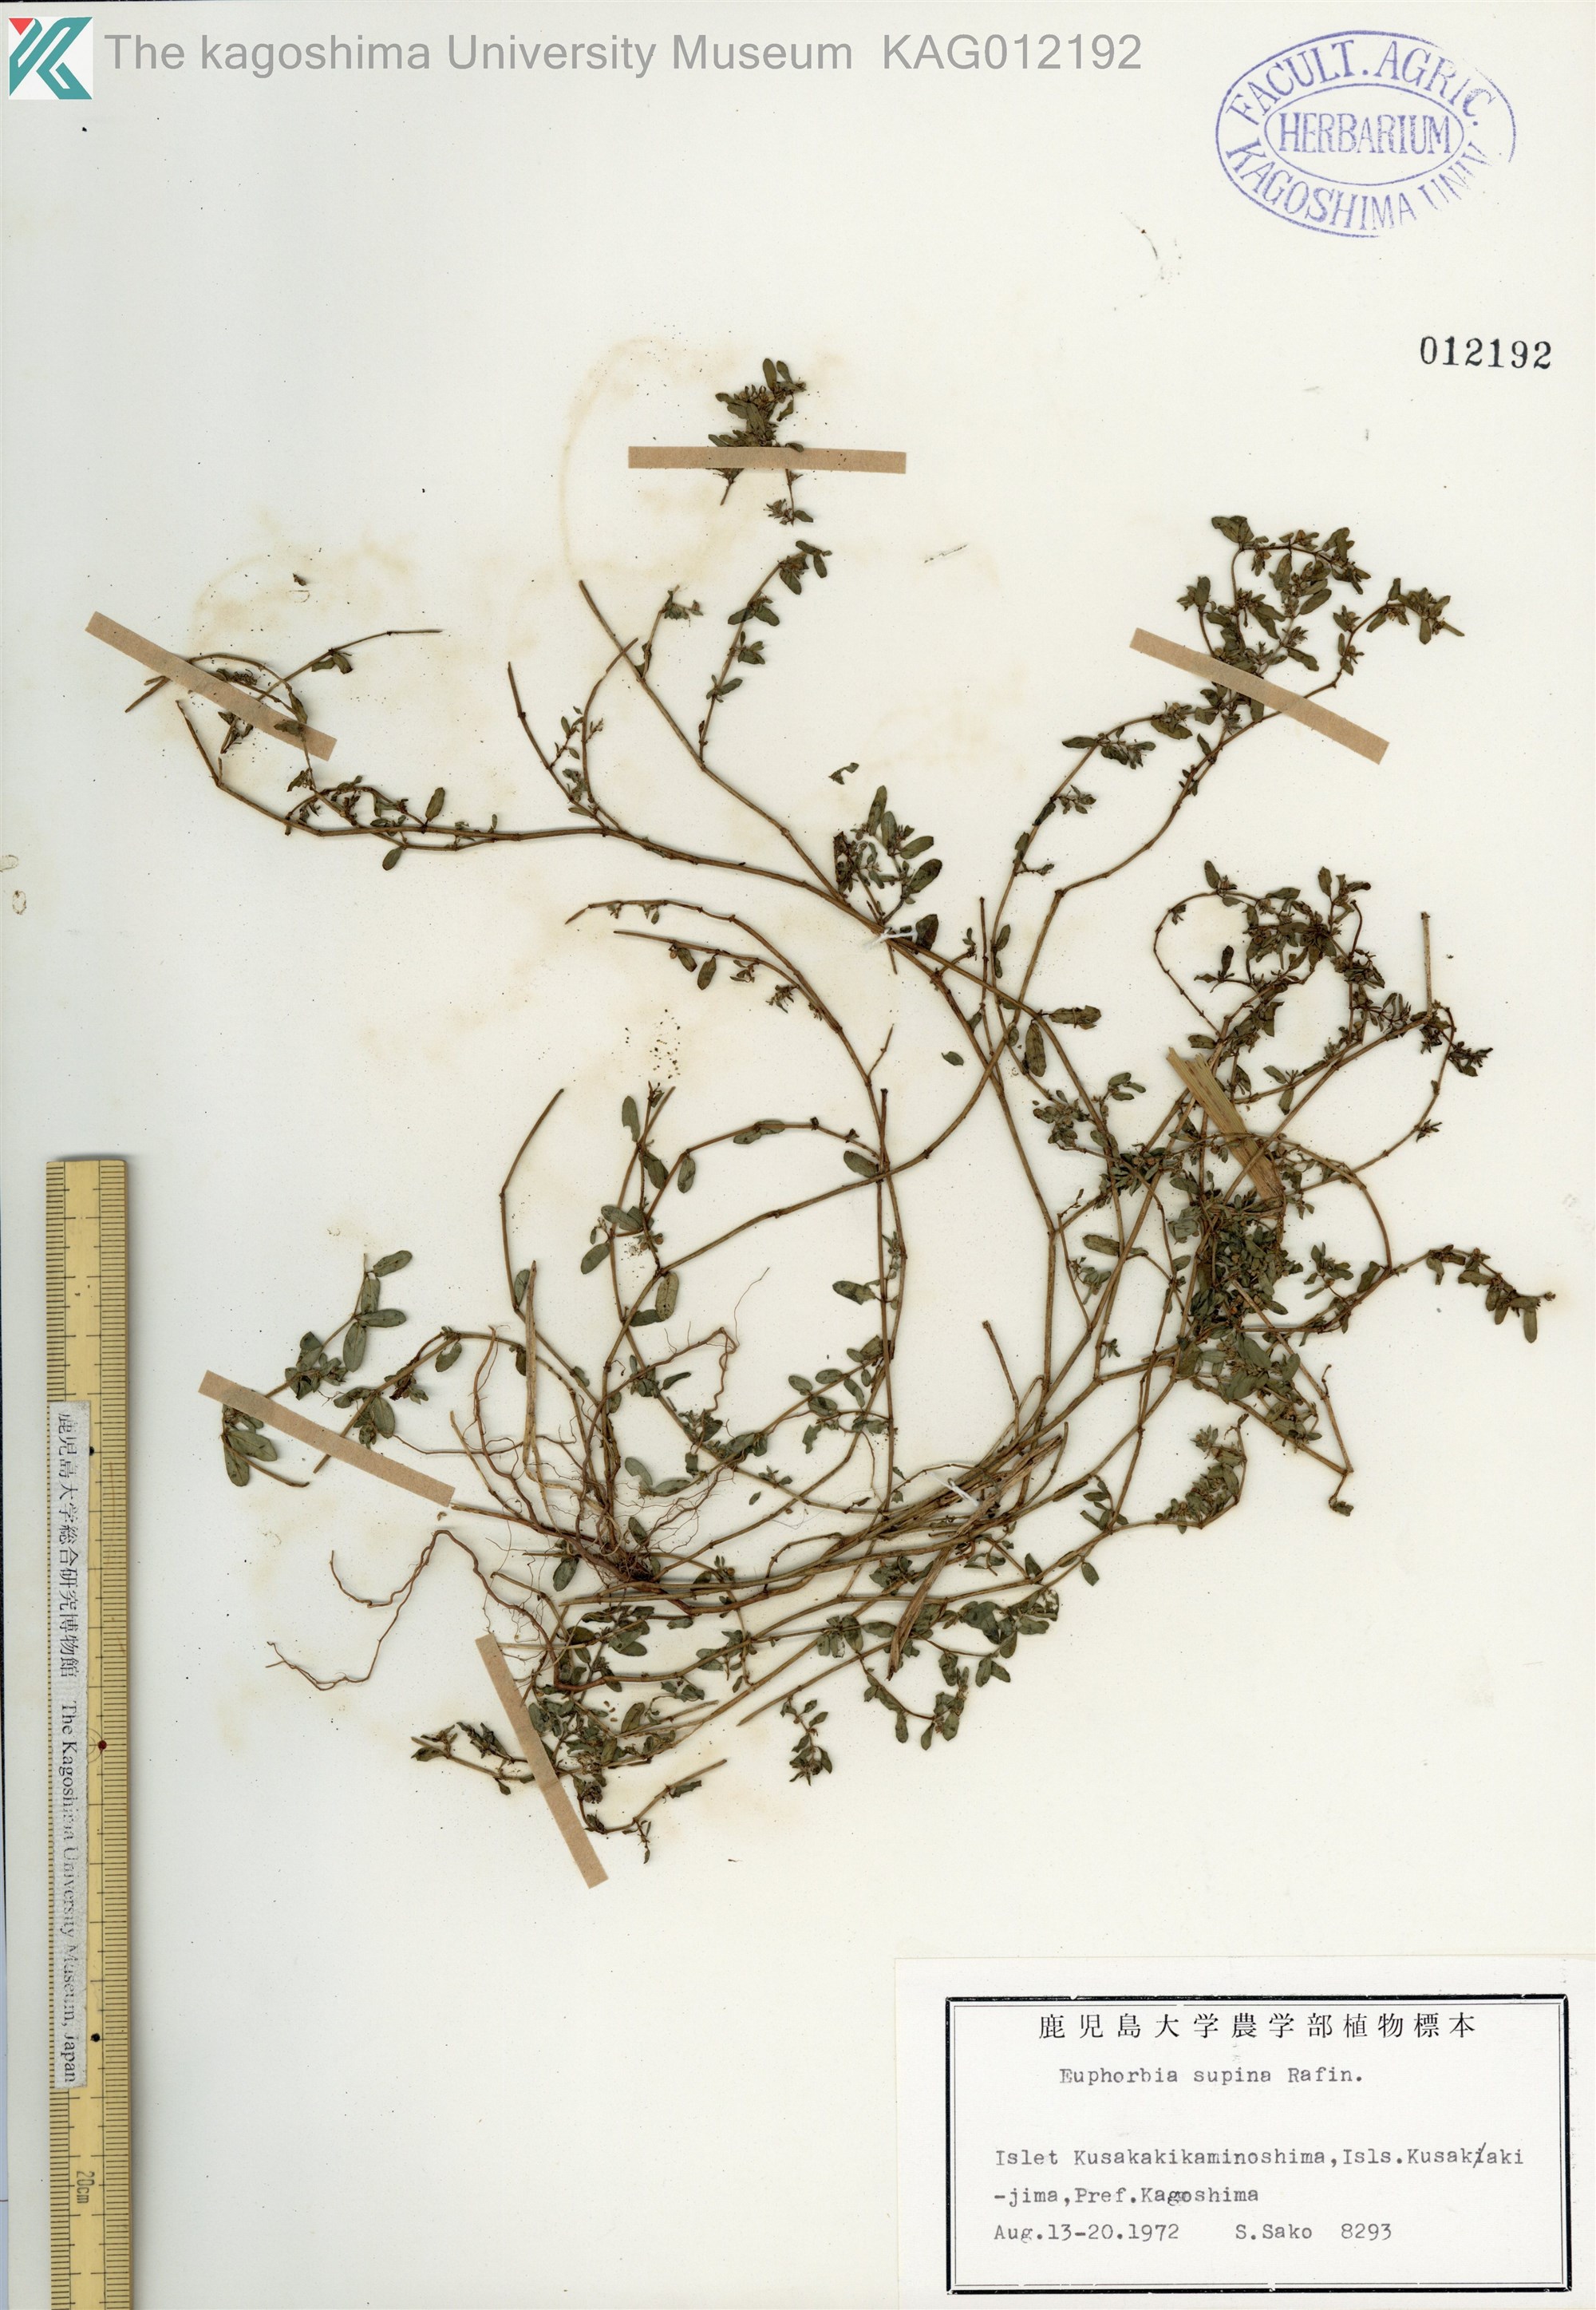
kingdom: Plantae
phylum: Tracheophyta
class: Magnoliopsida
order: Malpighiales
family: Euphorbiaceae
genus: Euphorbia
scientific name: Euphorbia maculata
